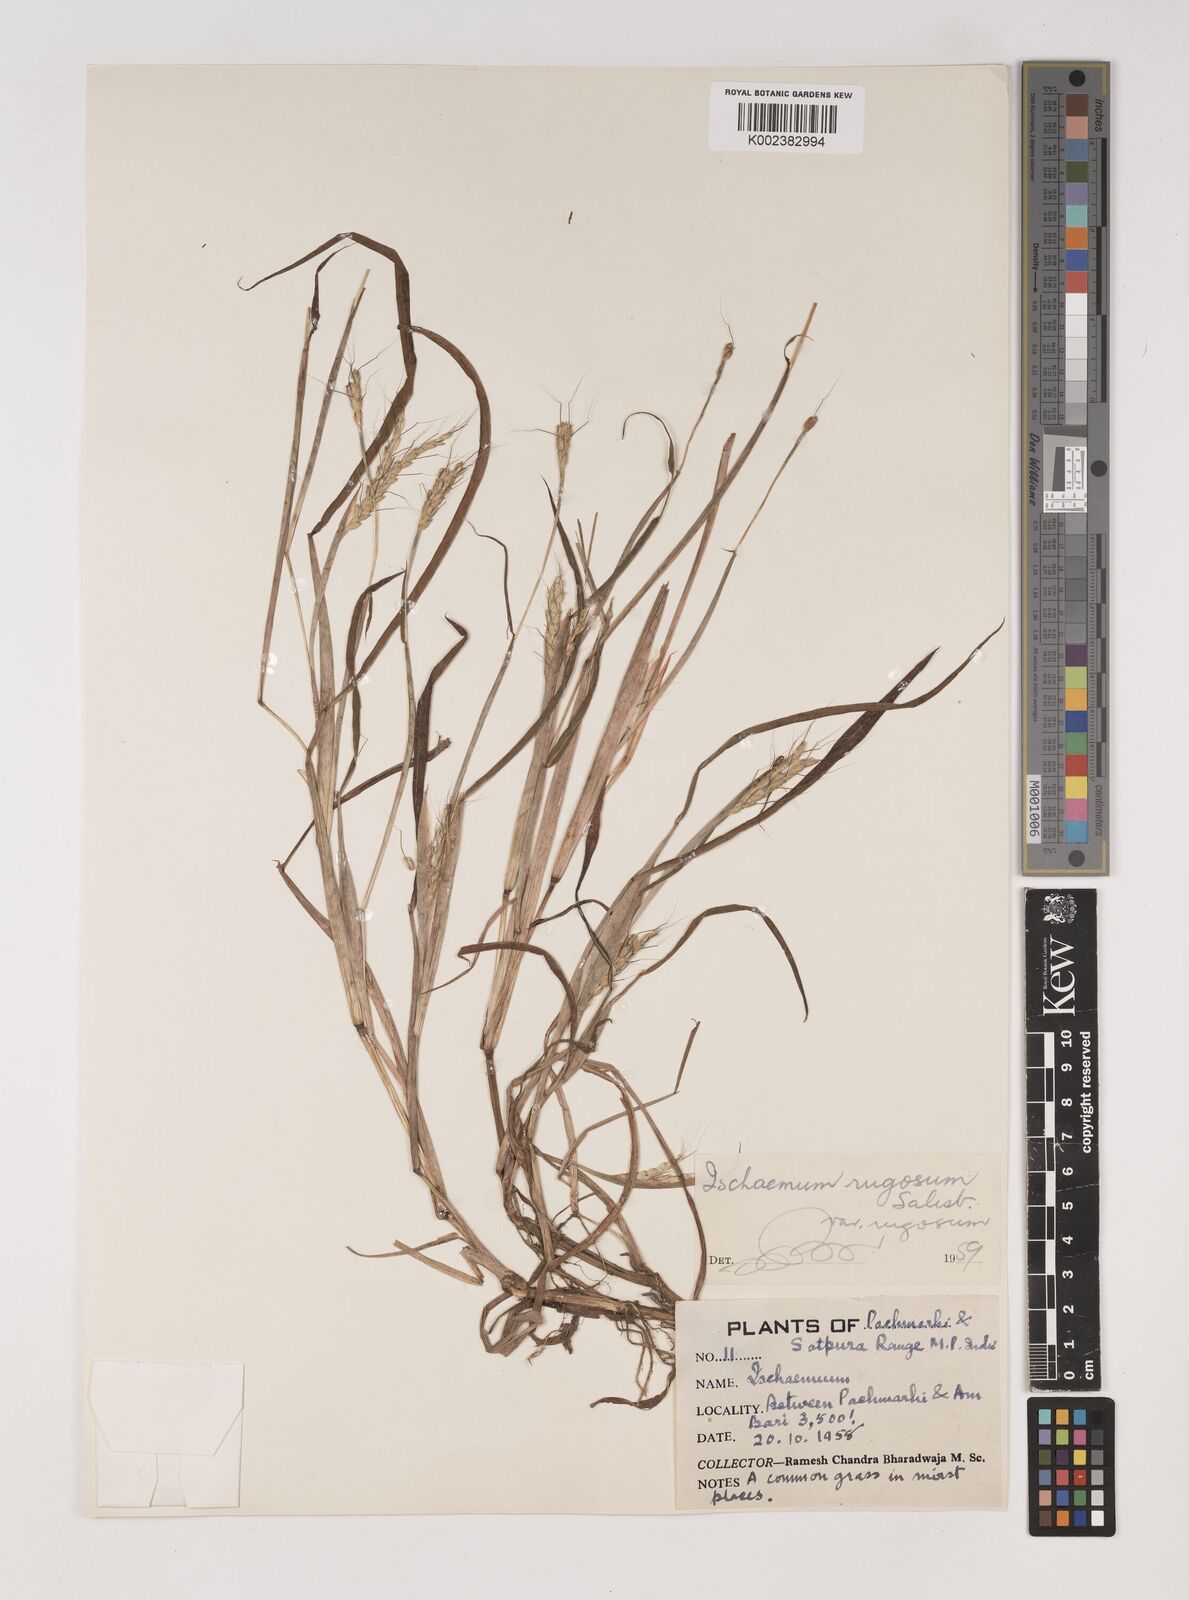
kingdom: Plantae
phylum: Tracheophyta
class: Liliopsida
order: Poales
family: Poaceae
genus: Ischaemum
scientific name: Ischaemum rugosum
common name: Saramatta grass
